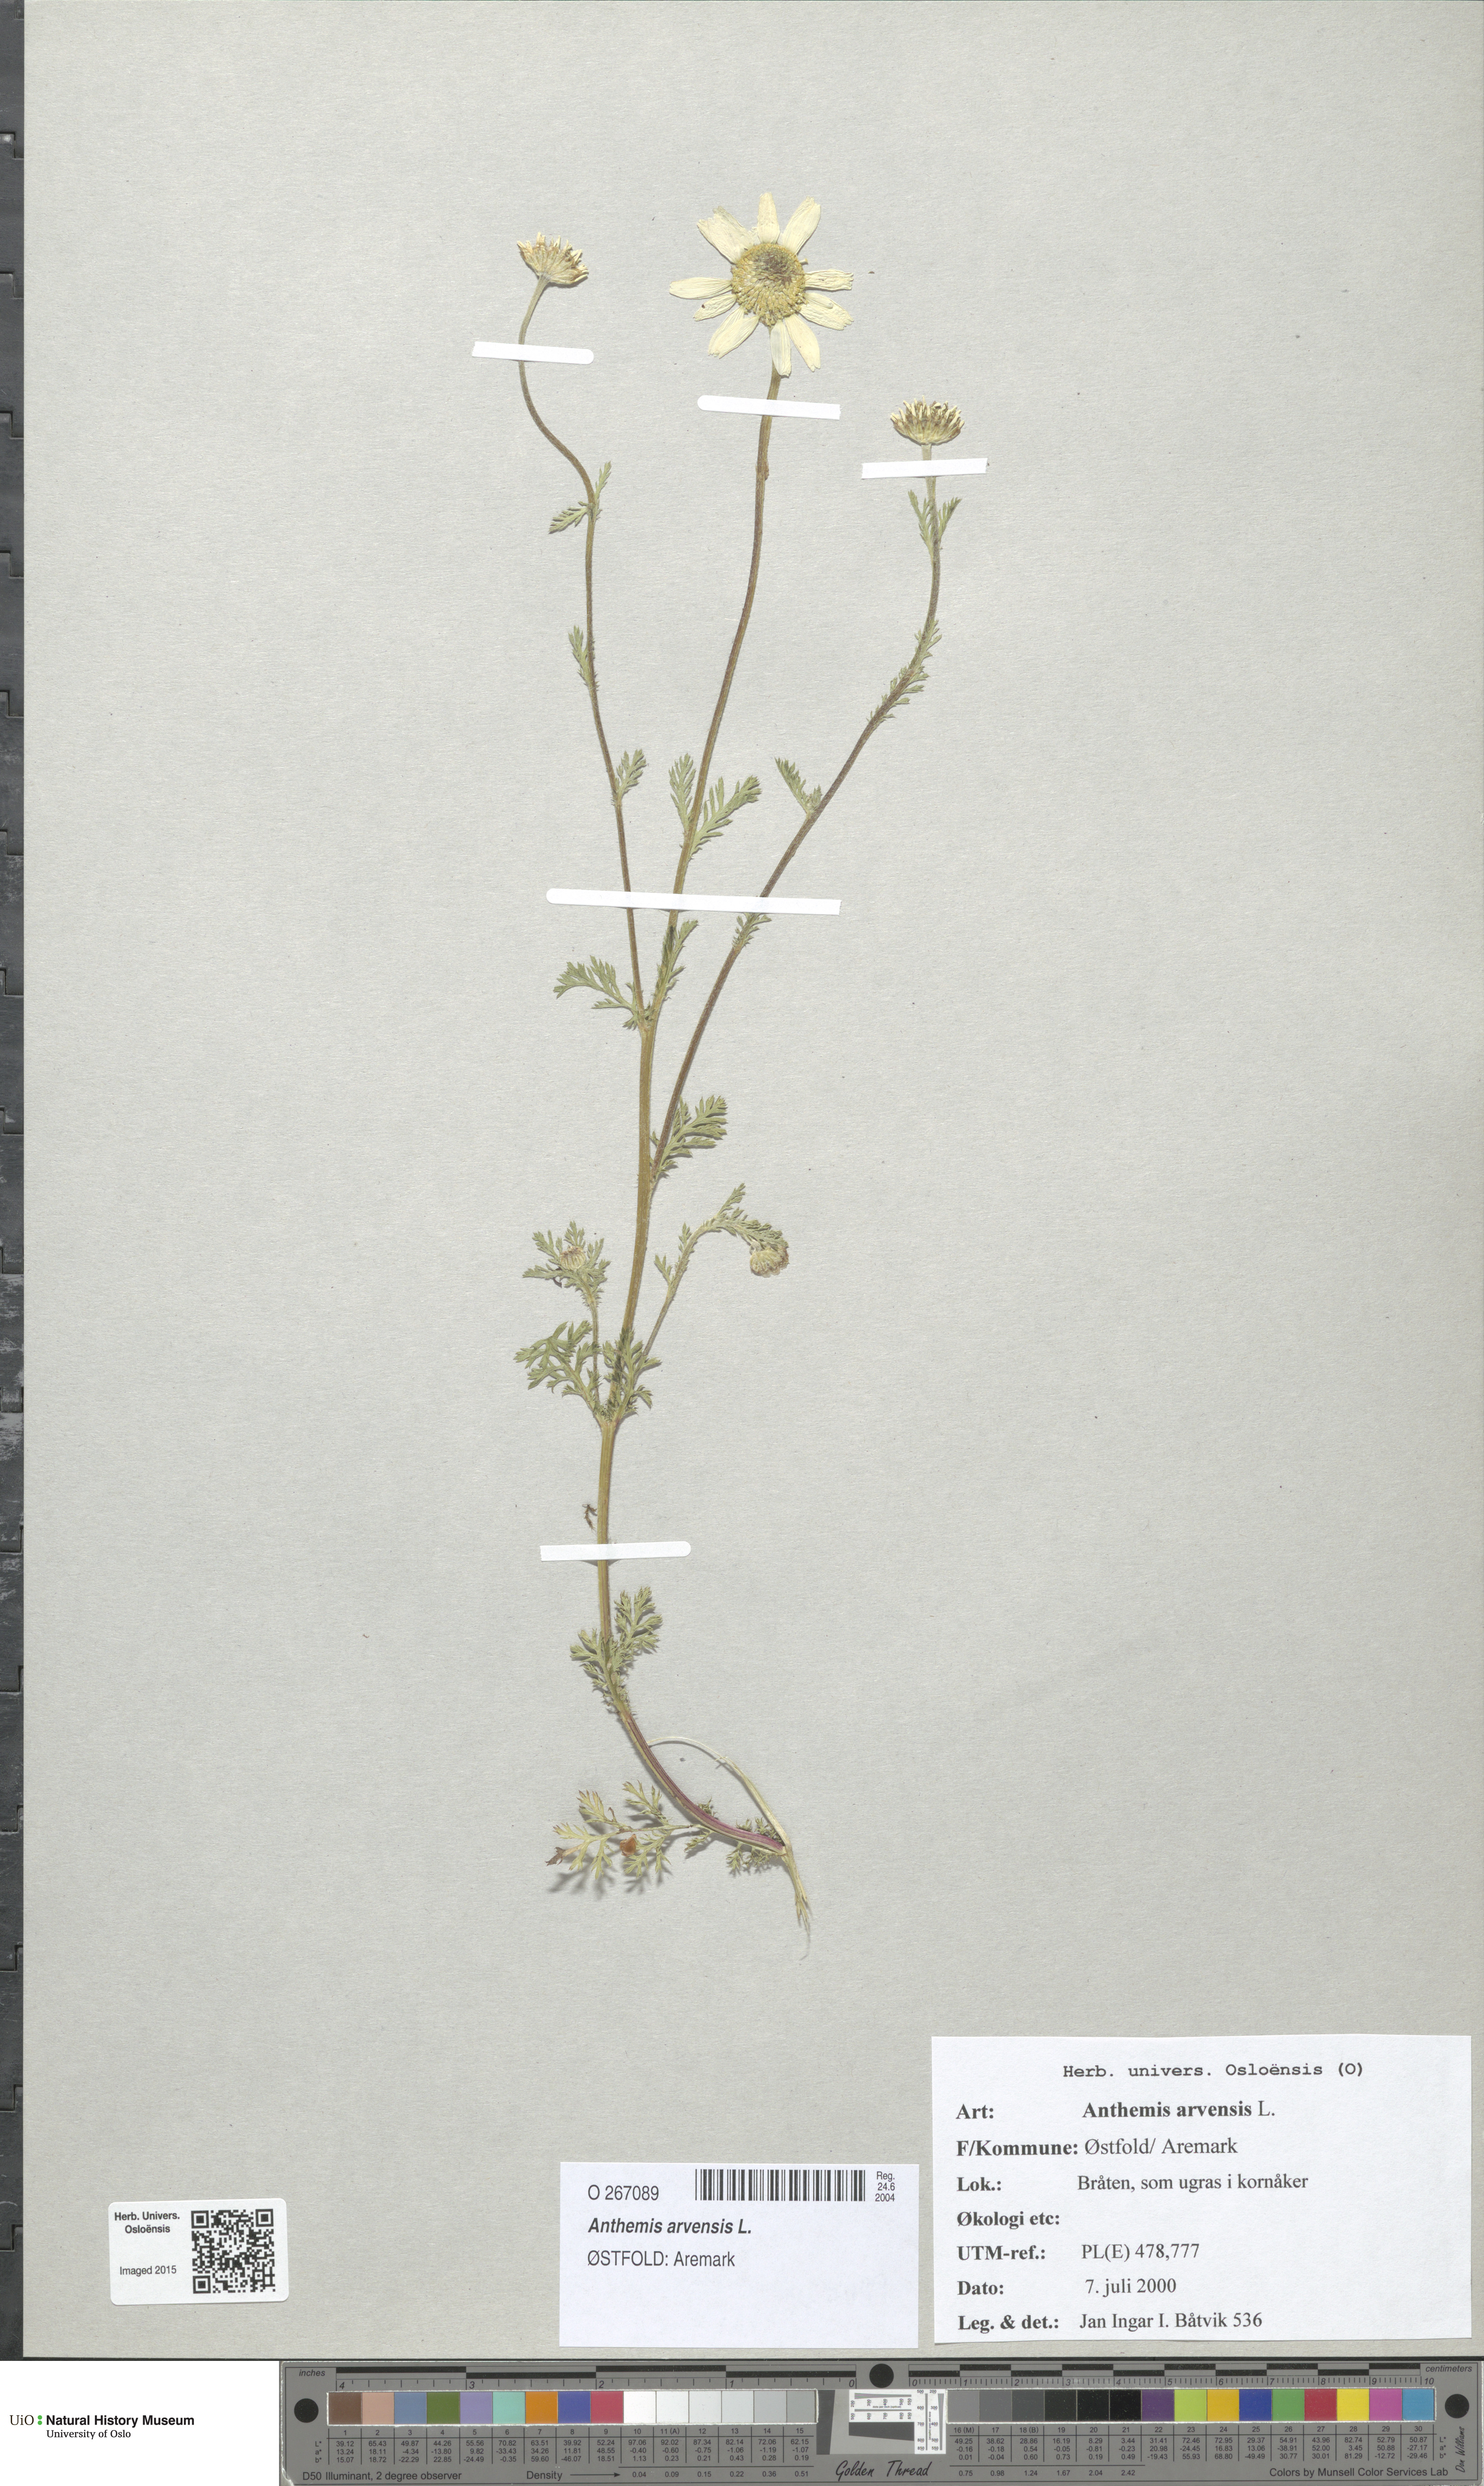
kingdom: Plantae
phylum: Tracheophyta
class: Magnoliopsida
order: Asterales
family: Asteraceae
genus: Anthemis
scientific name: Anthemis arvensis
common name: Corn chamomile
